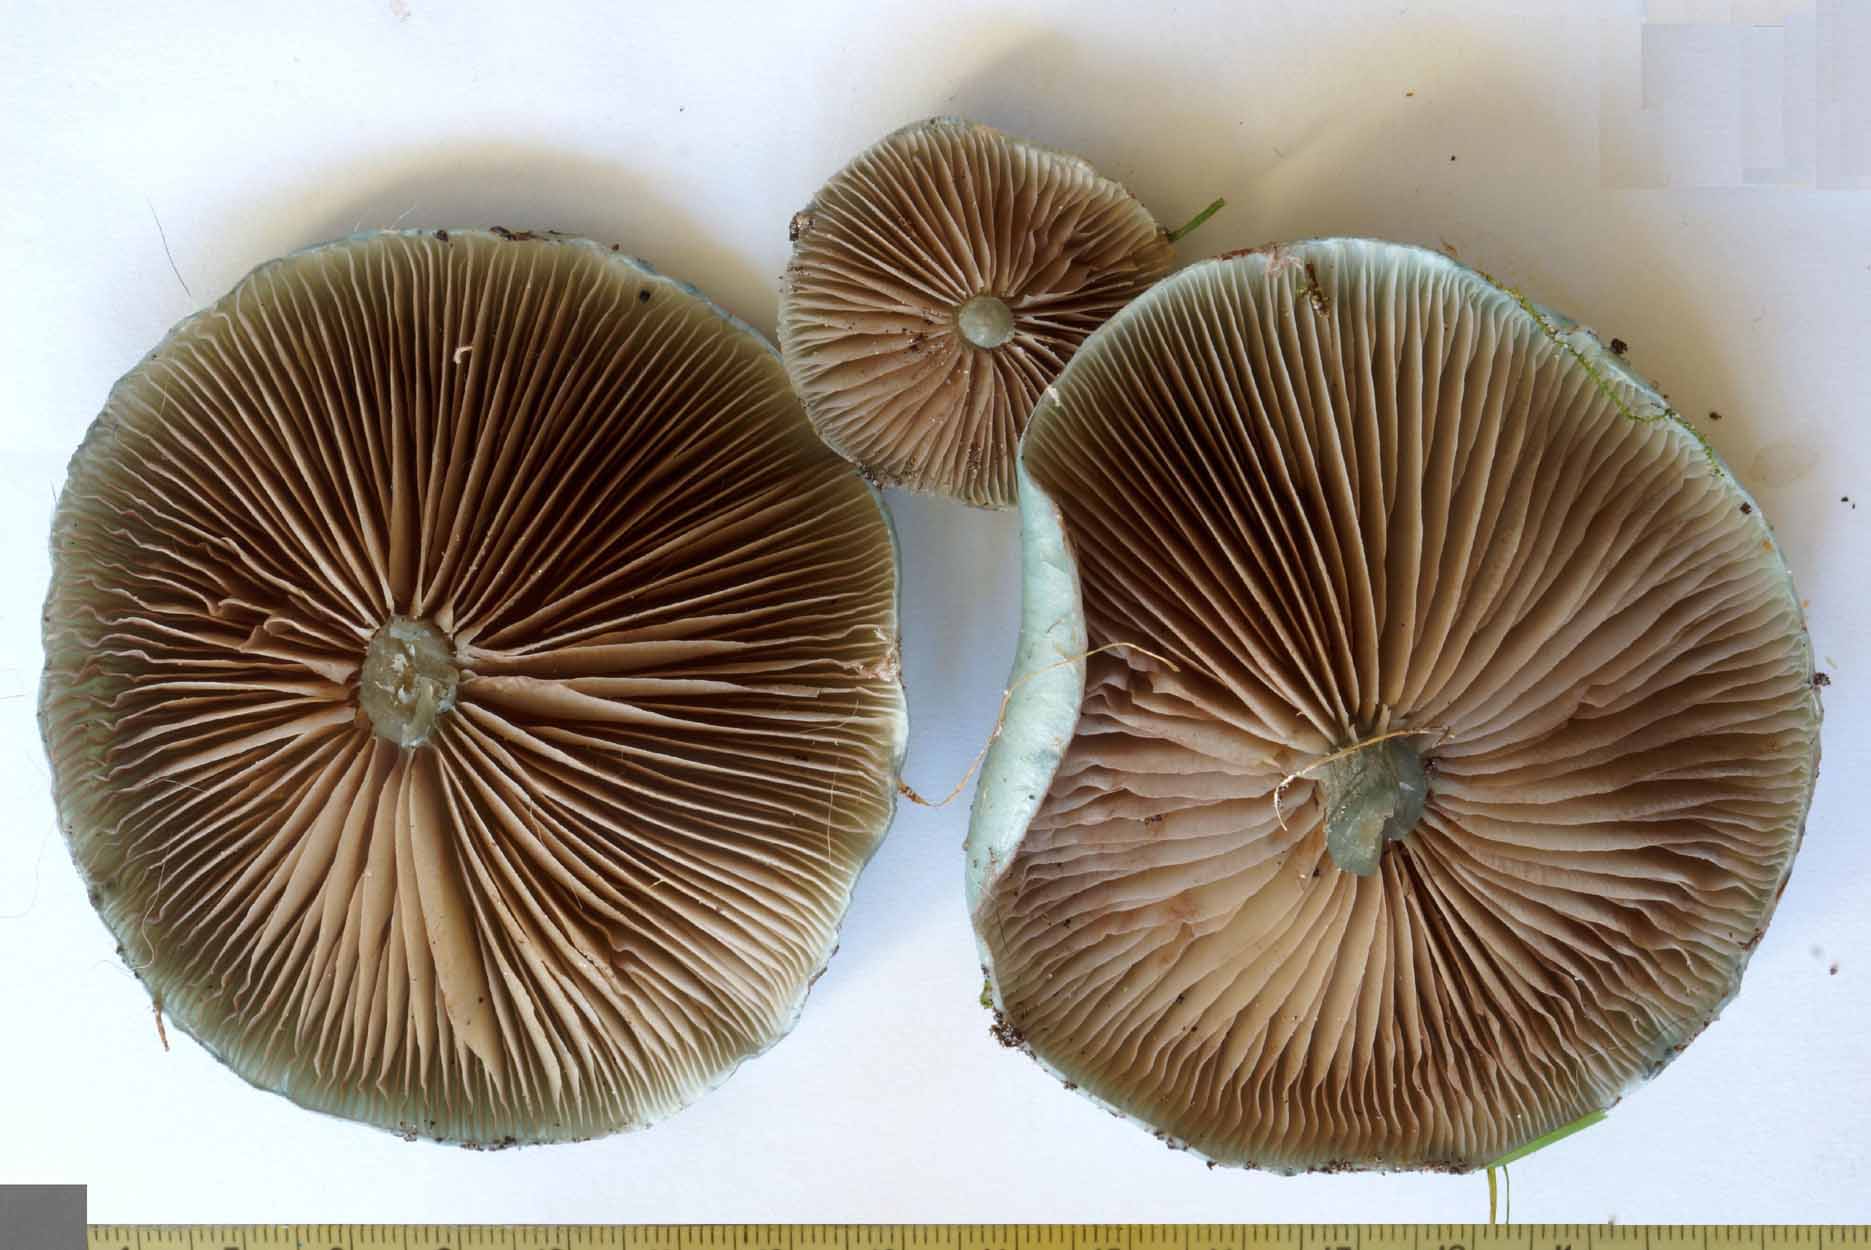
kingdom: Fungi
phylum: Basidiomycota
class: Agaricomycetes
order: Agaricales
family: Strophariaceae
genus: Stropharia
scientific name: Stropharia cyanea
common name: blågrøn bredblad
